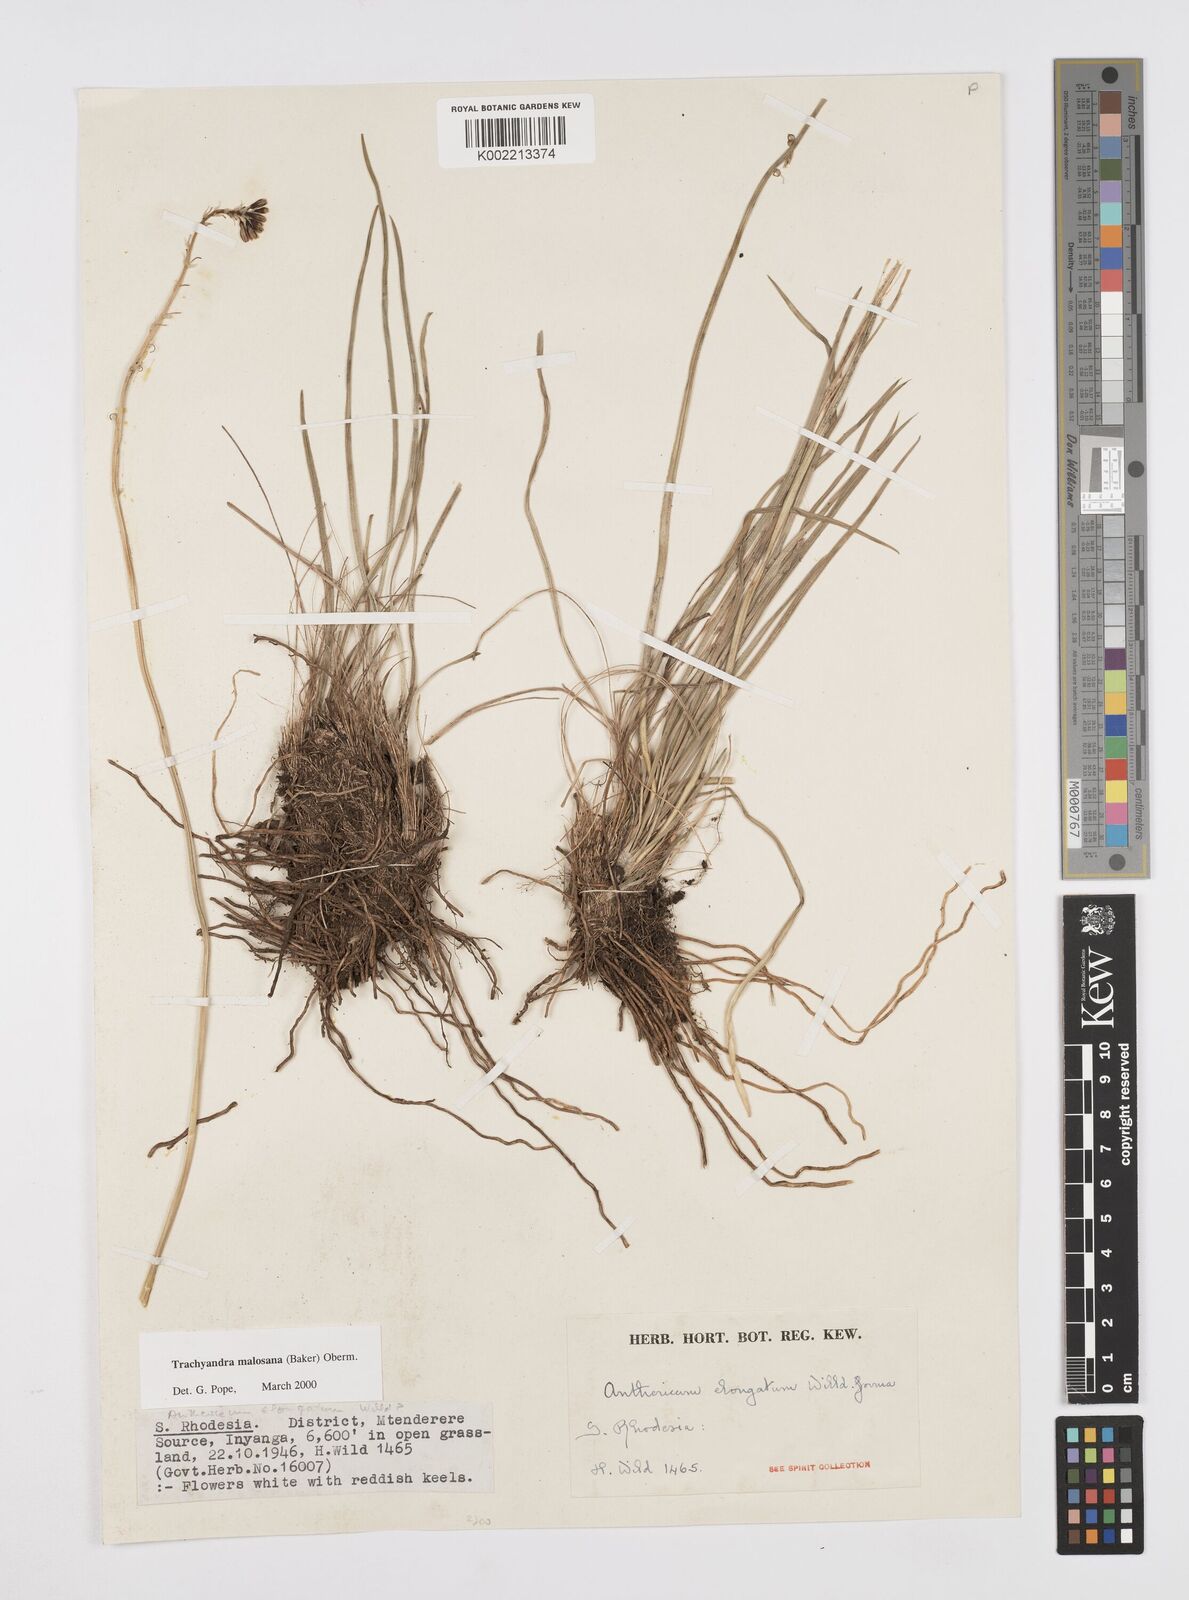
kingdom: Plantae
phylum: Tracheophyta
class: Liliopsida
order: Asparagales
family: Asphodelaceae
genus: Trachyandra
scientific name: Trachyandra malosana
